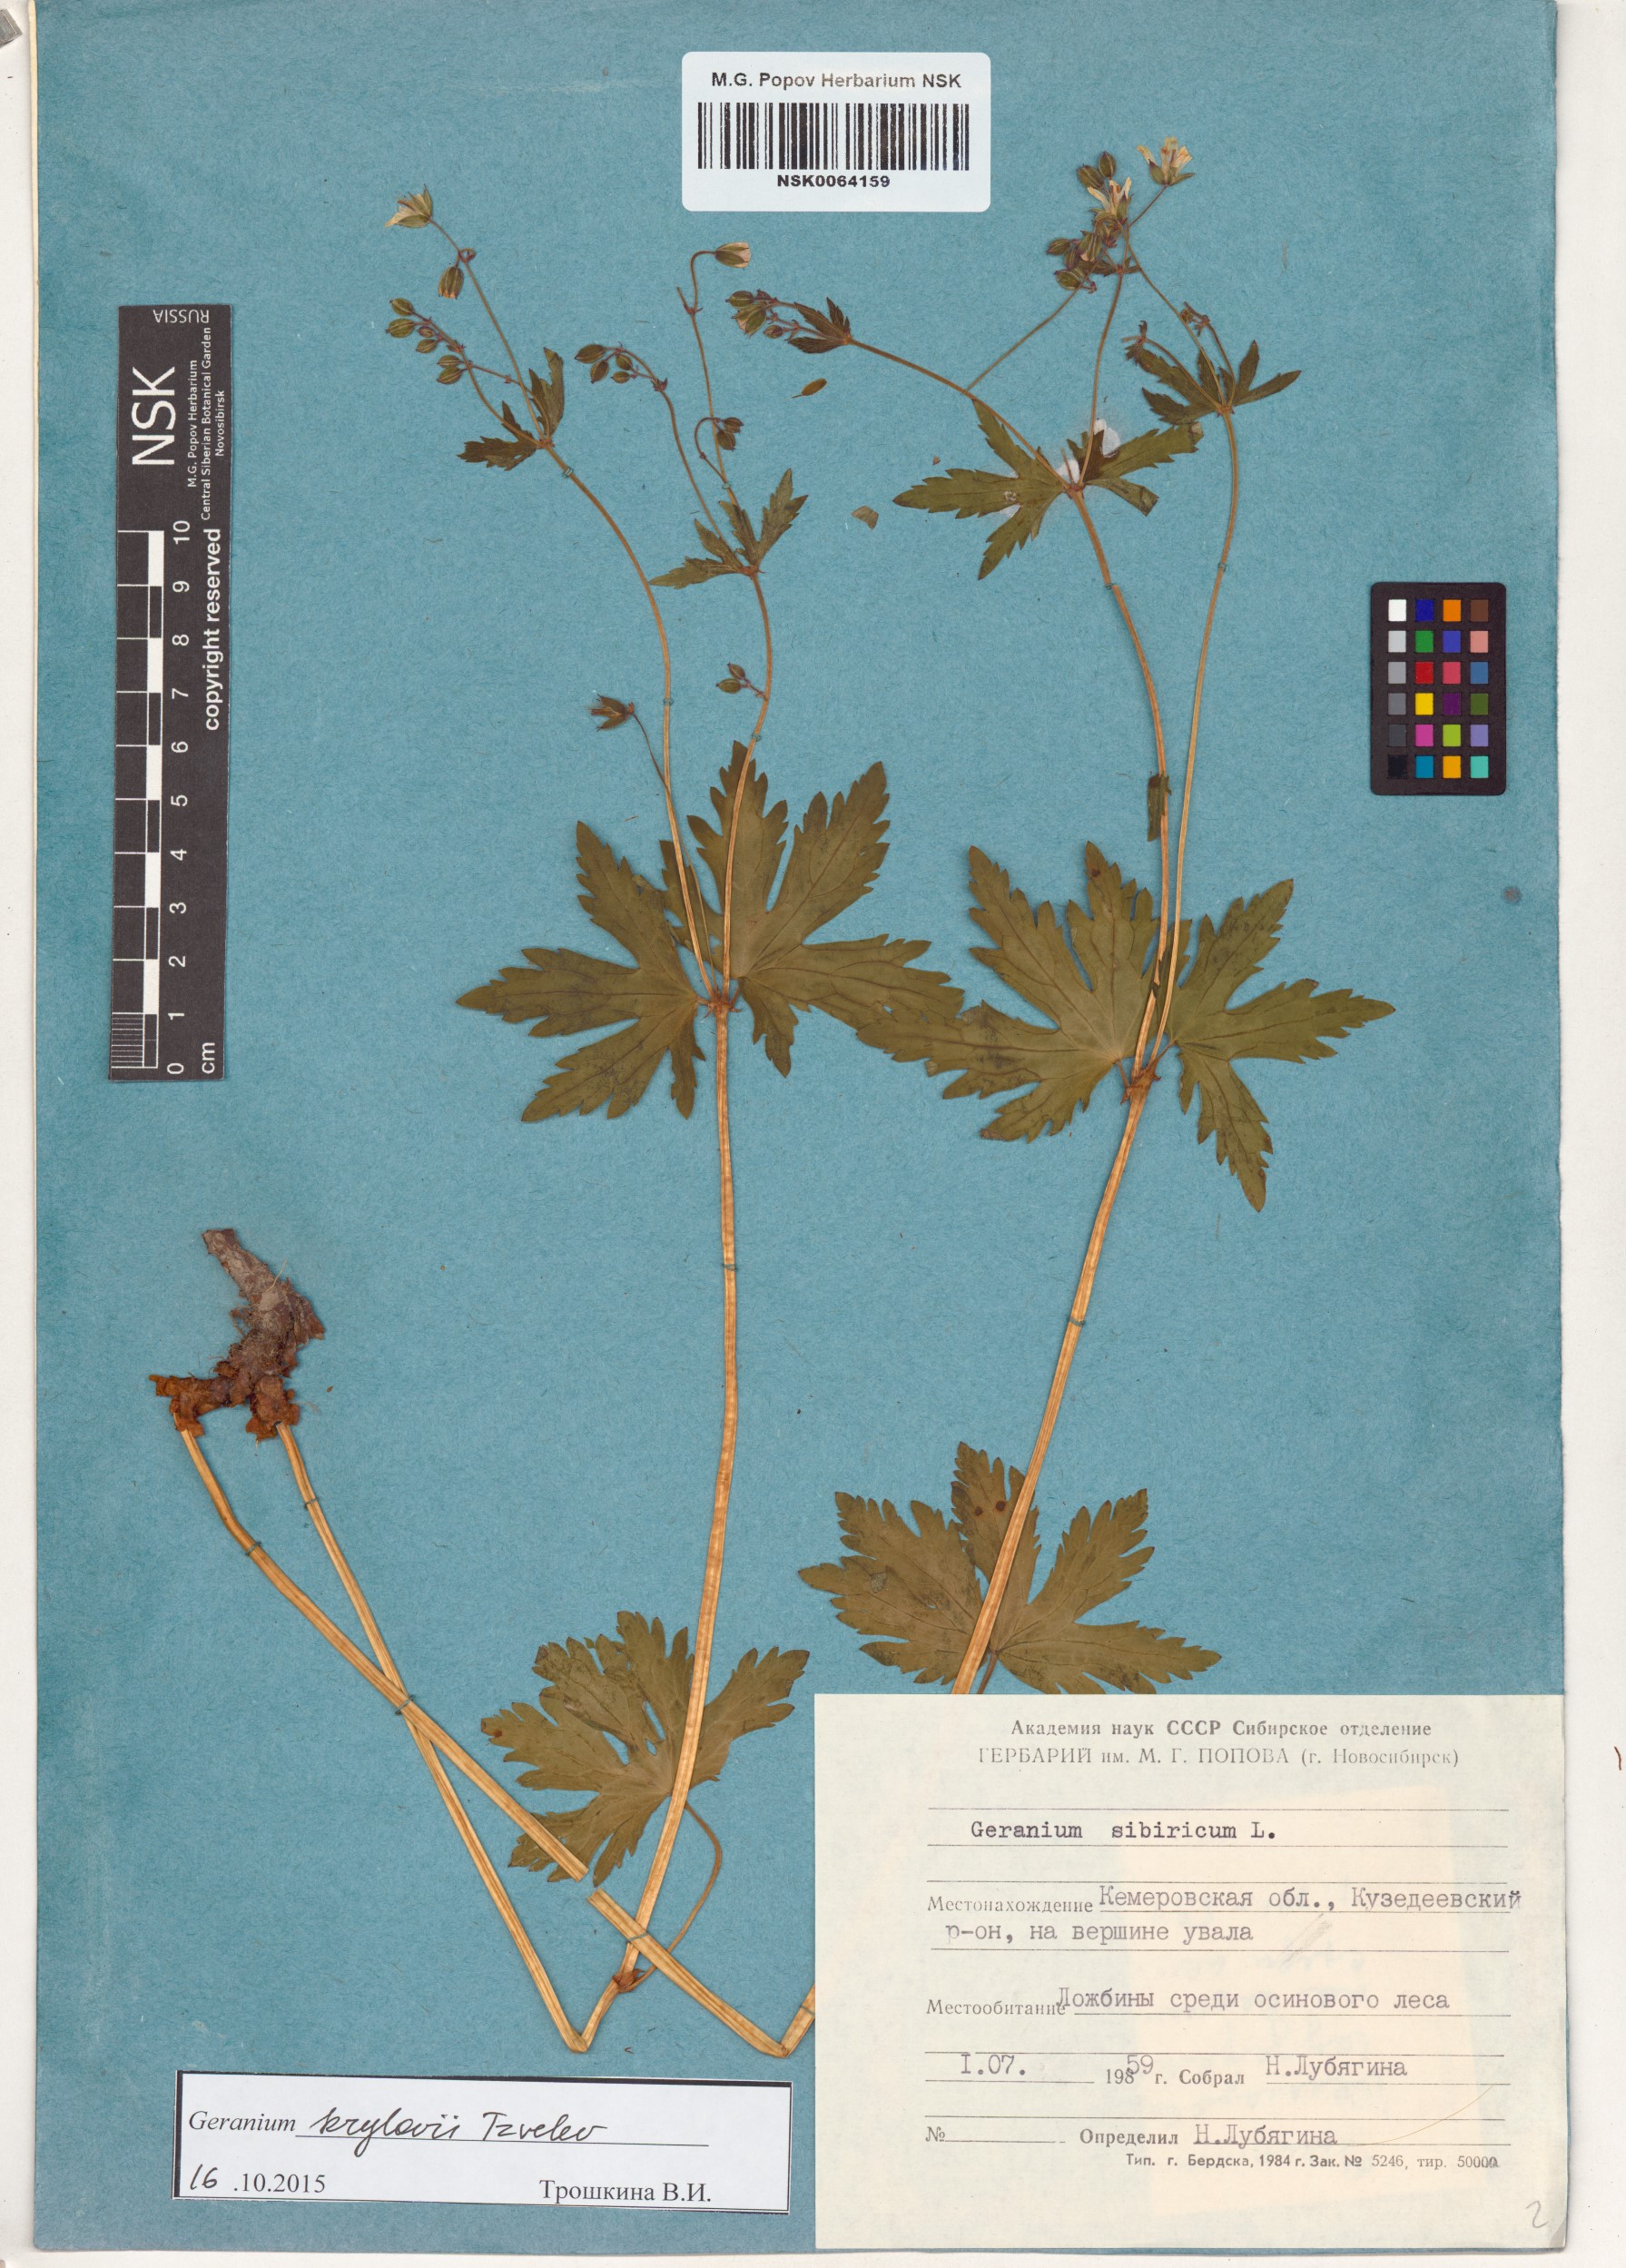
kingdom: Plantae
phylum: Tracheophyta
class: Magnoliopsida
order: Geraniales
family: Geraniaceae
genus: Geranium
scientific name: Geranium sylvaticum
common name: Wood crane's-bill
